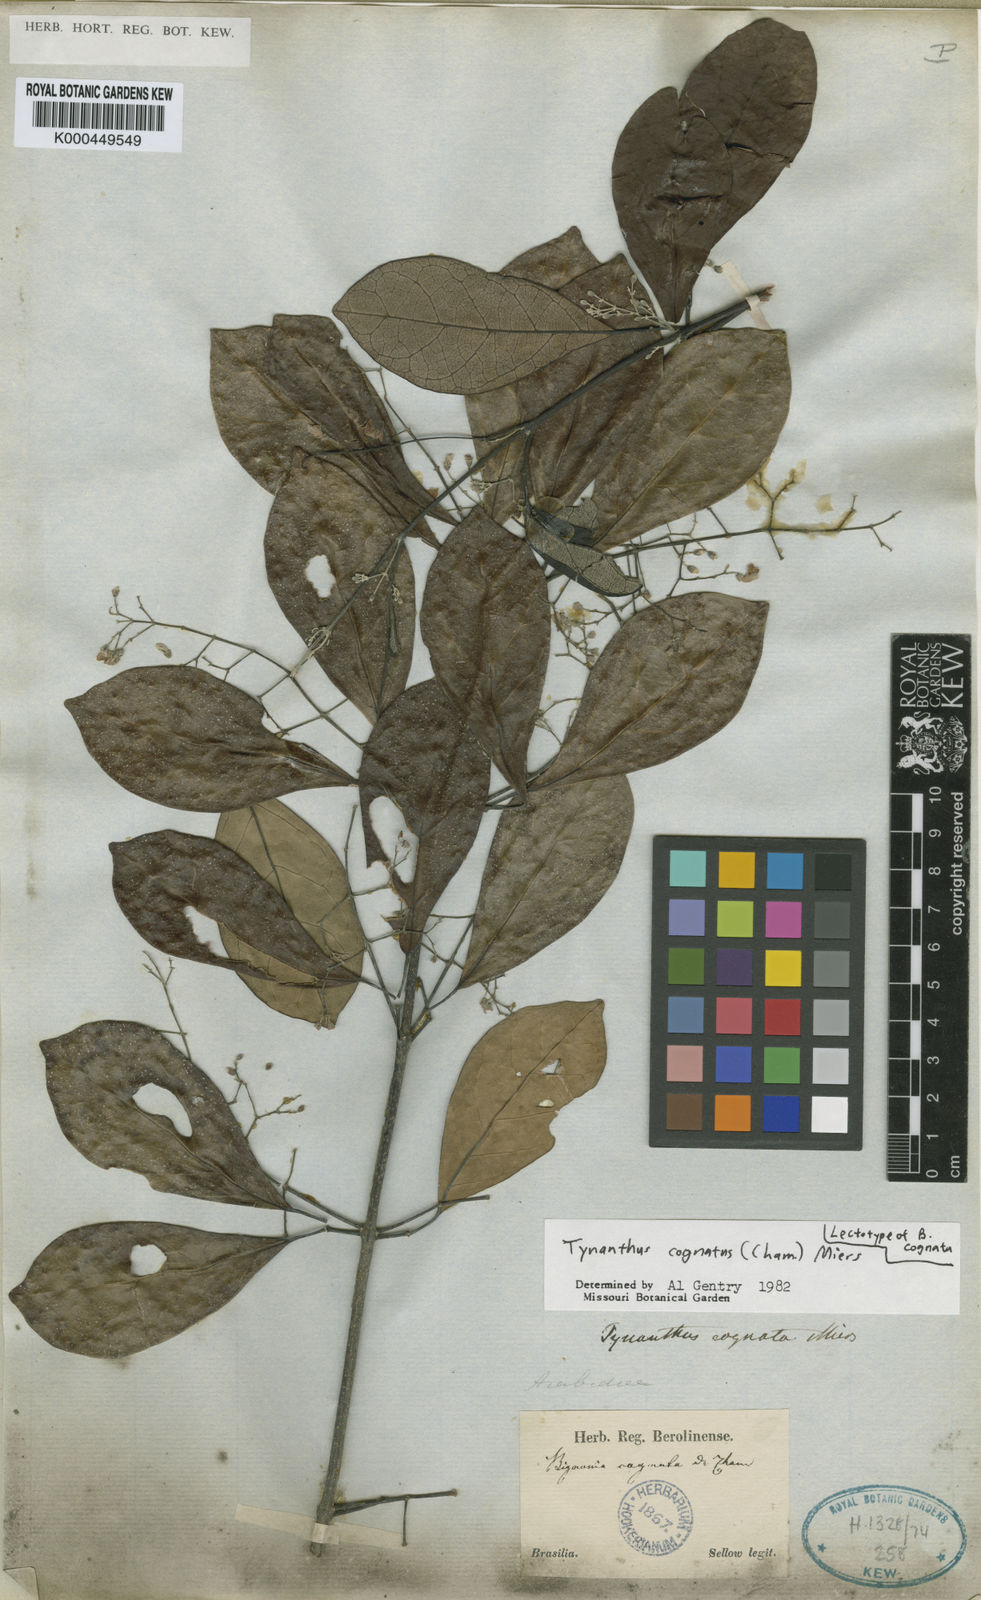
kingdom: Plantae
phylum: Tracheophyta
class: Magnoliopsida
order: Lamiales
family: Bignoniaceae
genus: Tynanthus
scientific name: Tynanthus cognatus
